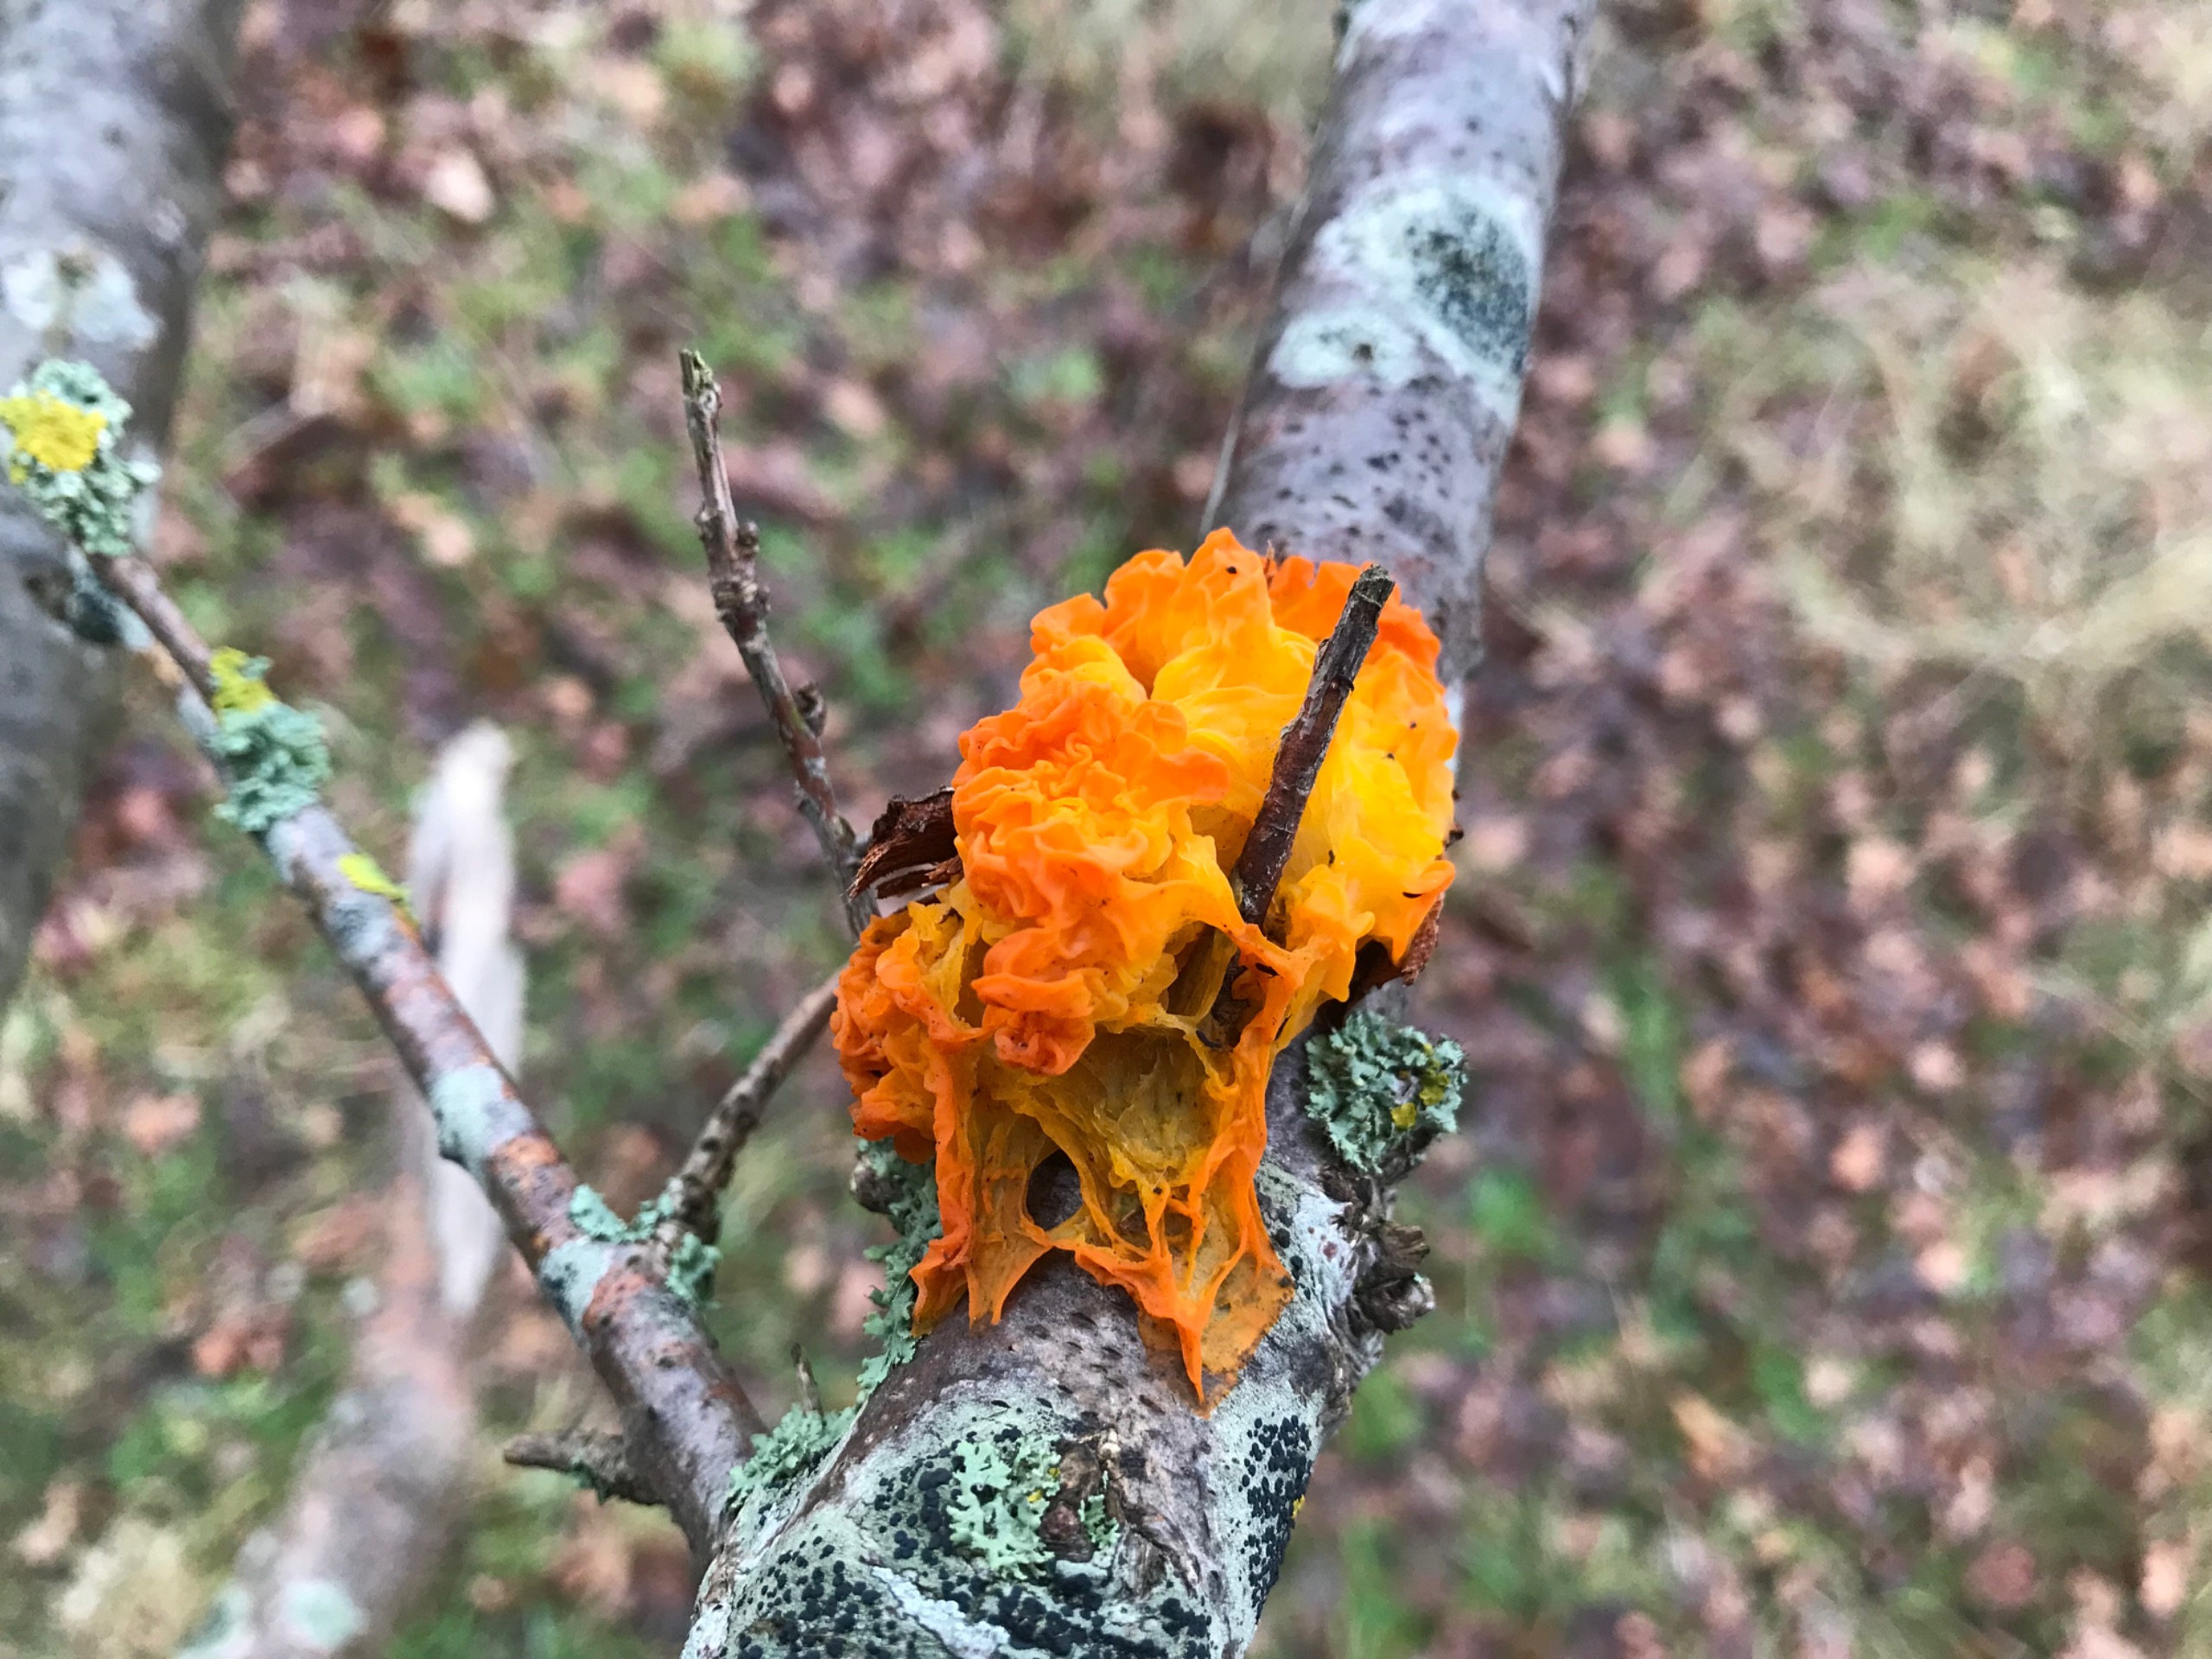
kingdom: Fungi
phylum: Basidiomycota
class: Tremellomycetes
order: Tremellales
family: Tremellaceae
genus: Tremella
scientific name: Tremella mesenterica
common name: Gul bævresvamp
